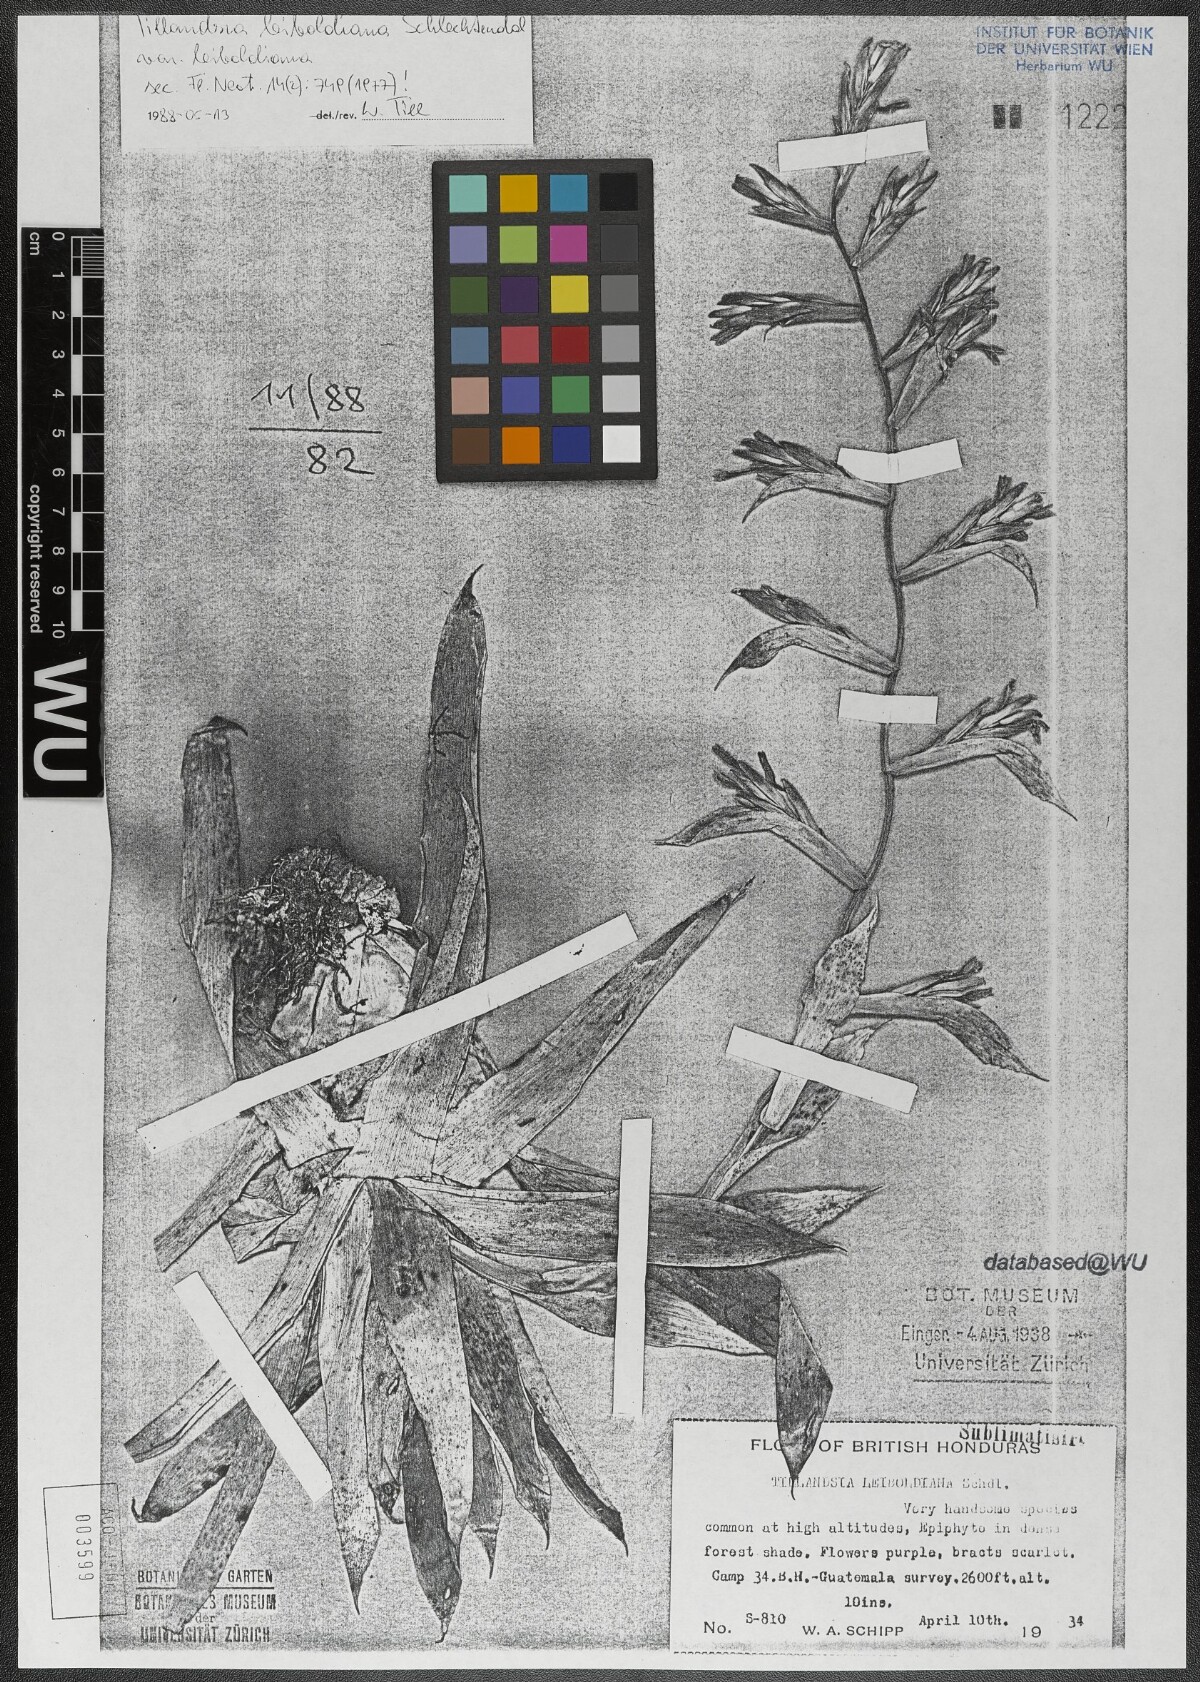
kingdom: Plantae
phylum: Tracheophyta
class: Liliopsida
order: Poales
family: Bromeliaceae
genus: Tillandsia
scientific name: Tillandsia leiboldiana
